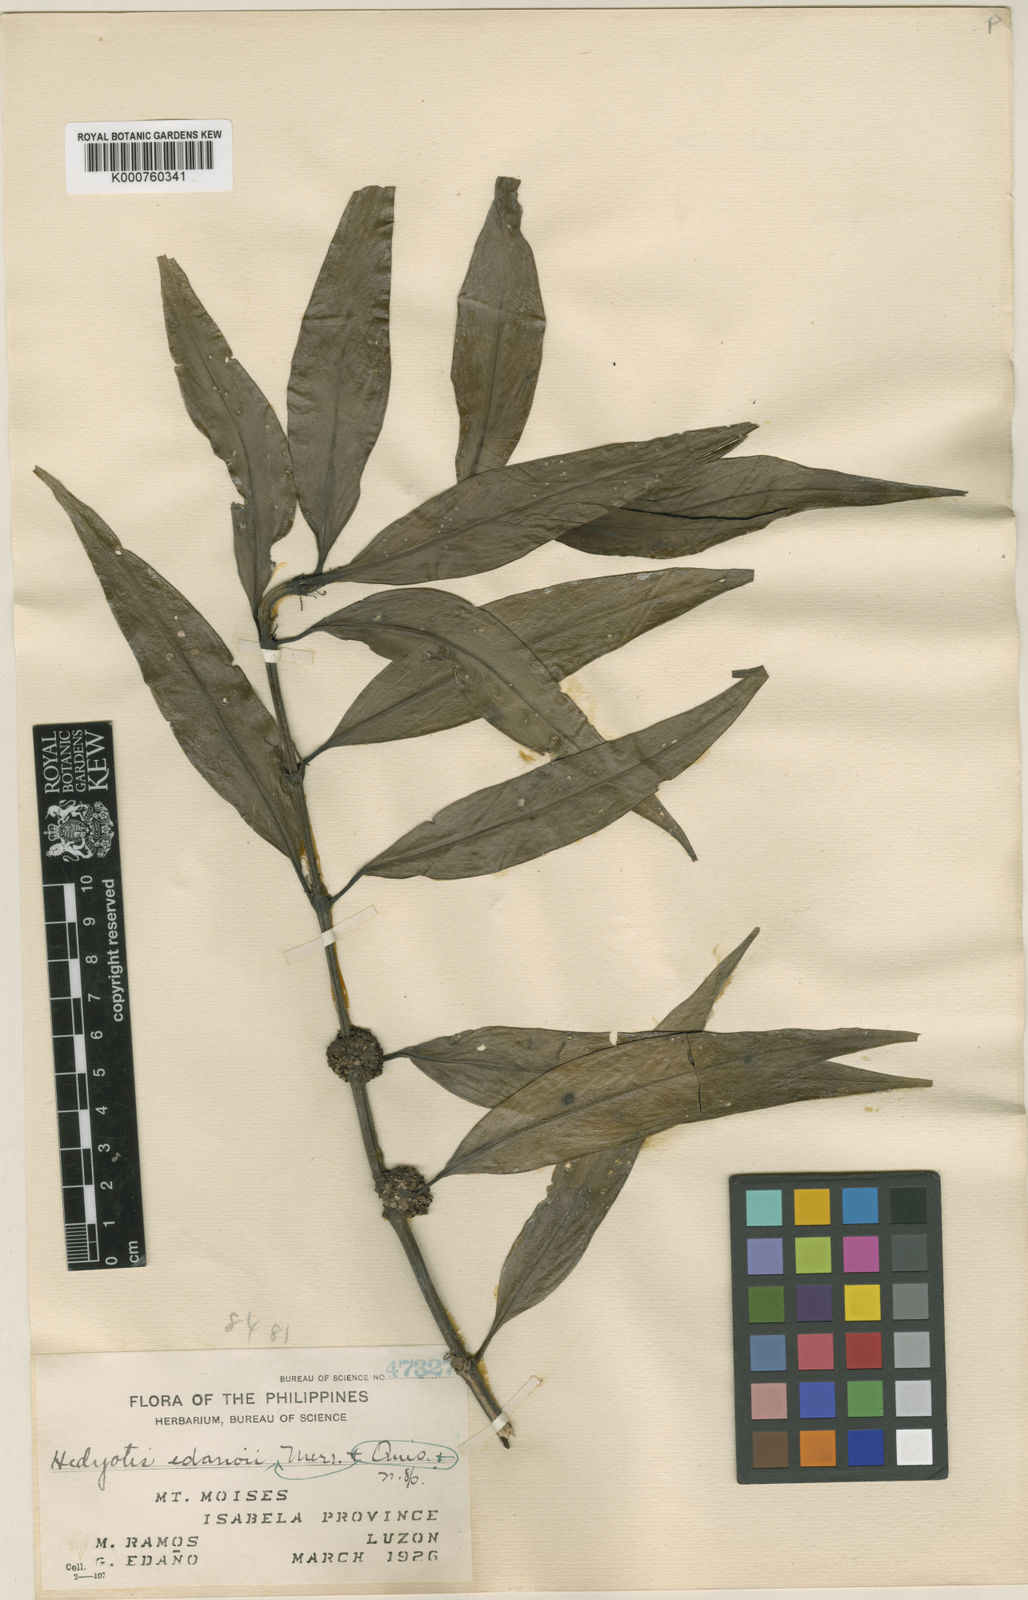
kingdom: Plantae
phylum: Tracheophyta
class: Magnoliopsida
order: Gentianales
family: Rubiaceae
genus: Hedyotis
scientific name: Hedyotis edanoii
